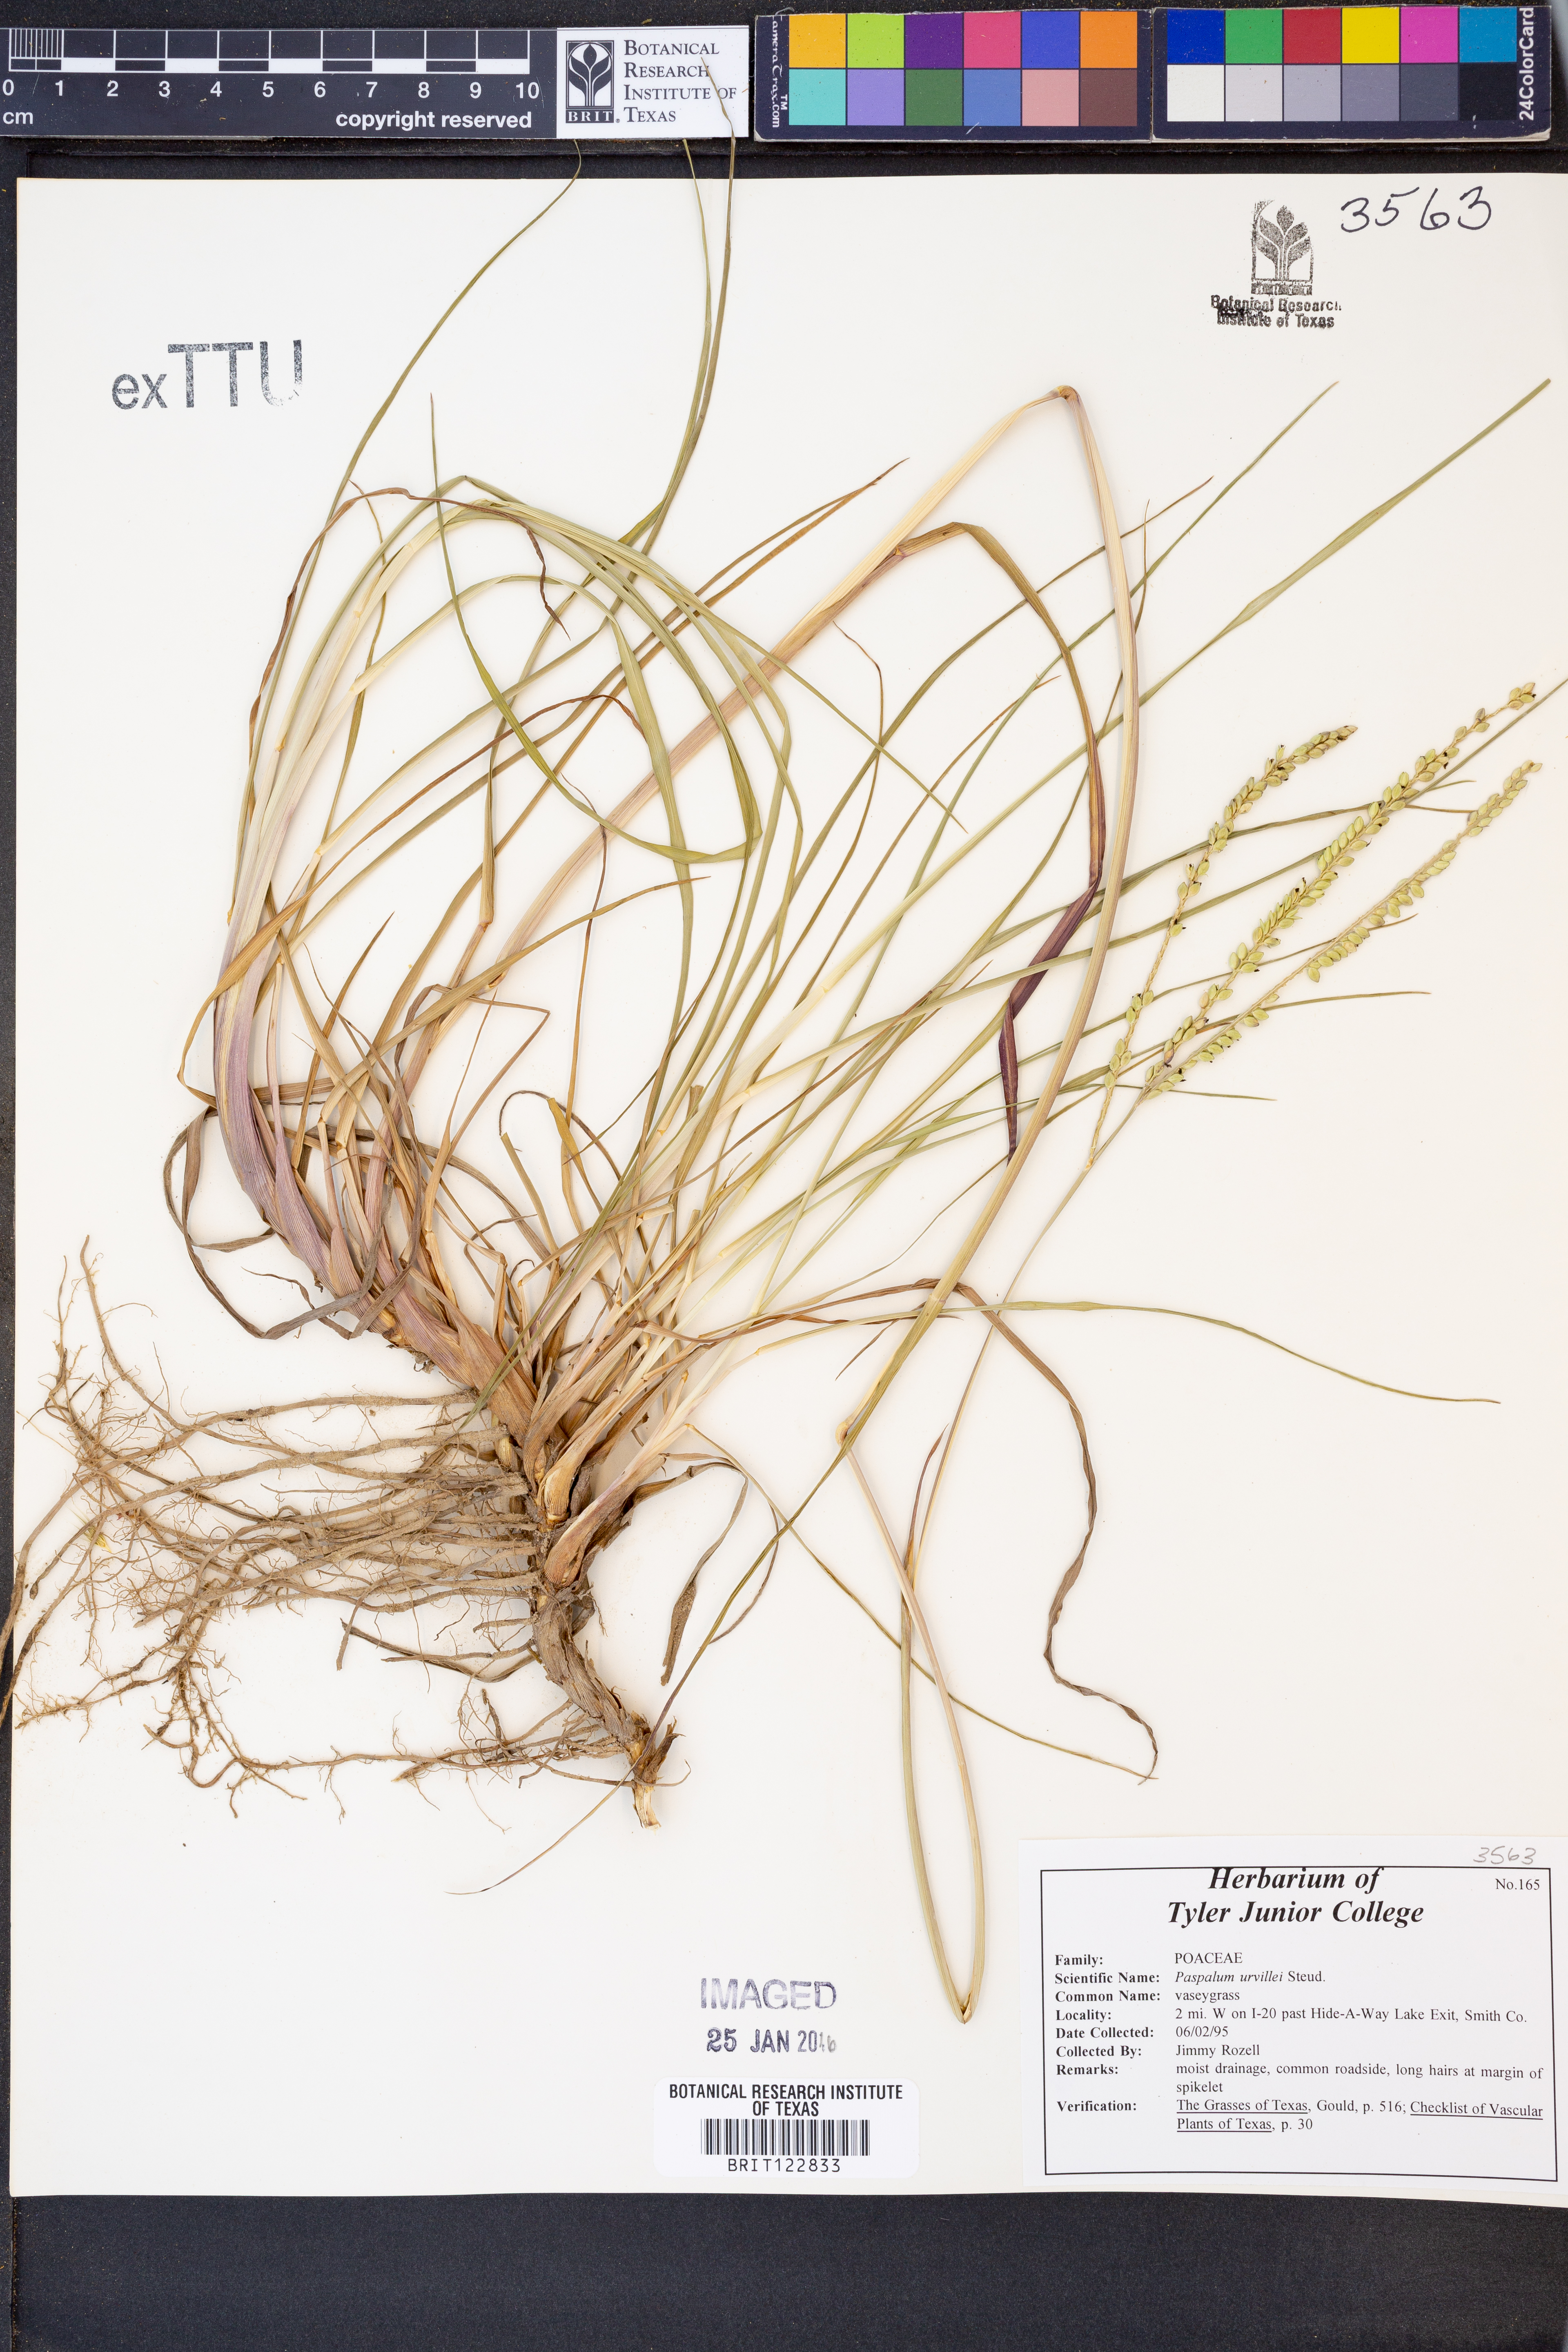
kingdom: Plantae
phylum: Tracheophyta
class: Liliopsida
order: Poales
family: Poaceae
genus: Paspalum
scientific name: Paspalum urvillei
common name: Vasey's grass
